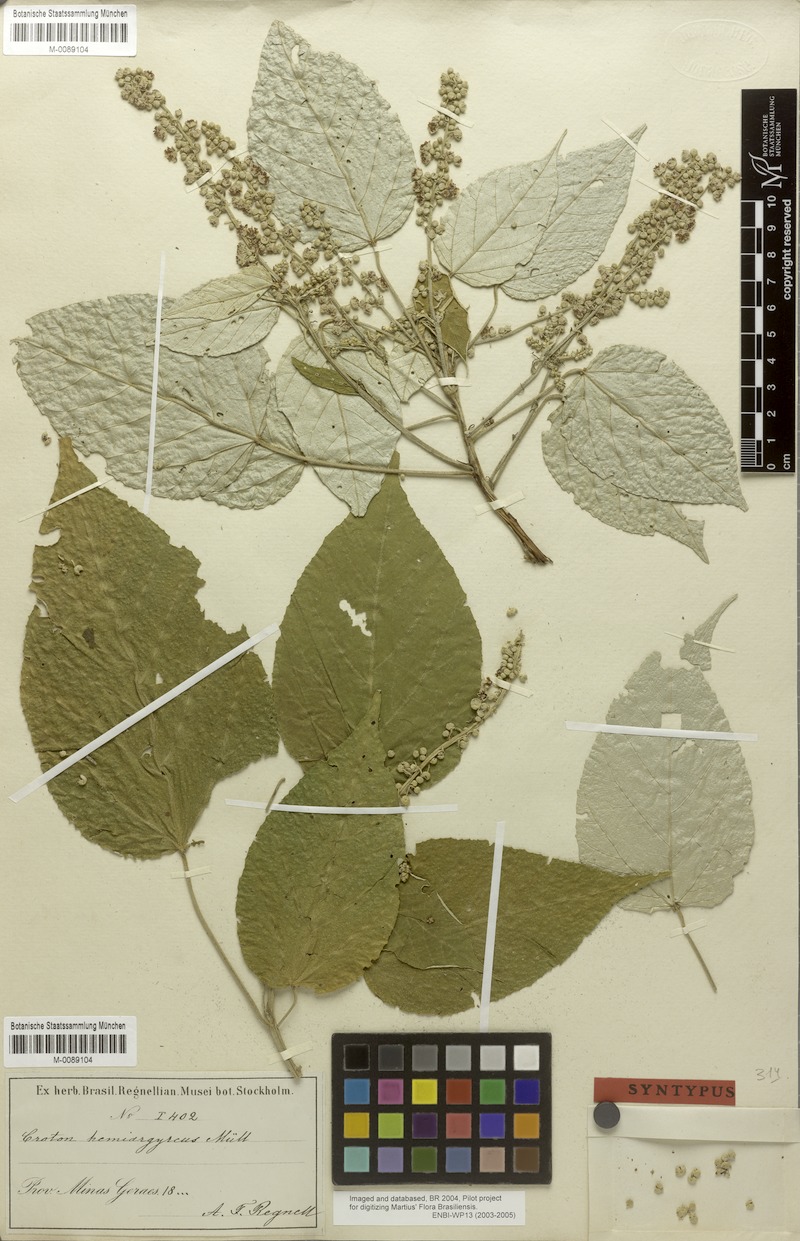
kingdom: Plantae
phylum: Tracheophyta
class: Magnoliopsida
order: Malpighiales
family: Euphorbiaceae
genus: Croton
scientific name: Croton hemiargyreus
